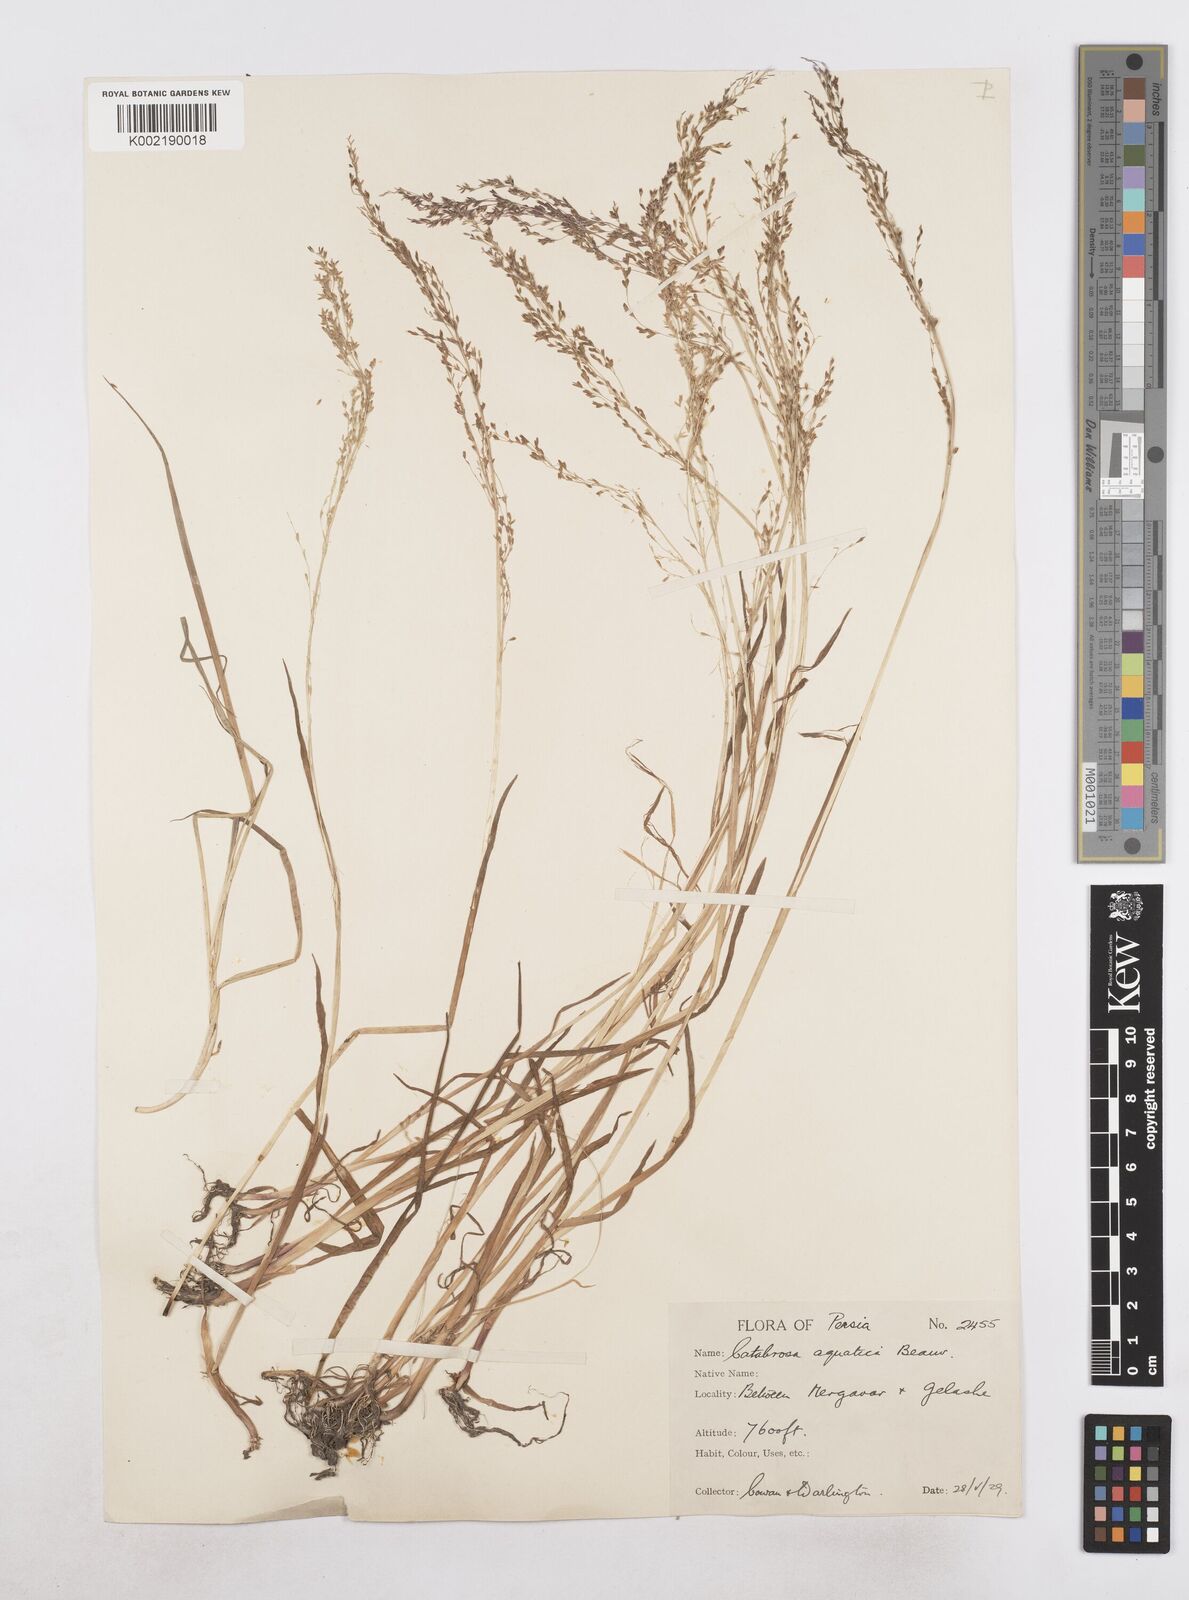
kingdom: Plantae
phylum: Tracheophyta
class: Liliopsida
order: Poales
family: Poaceae
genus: Catabrosa
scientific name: Catabrosa aquatica
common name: Whorl-grass
